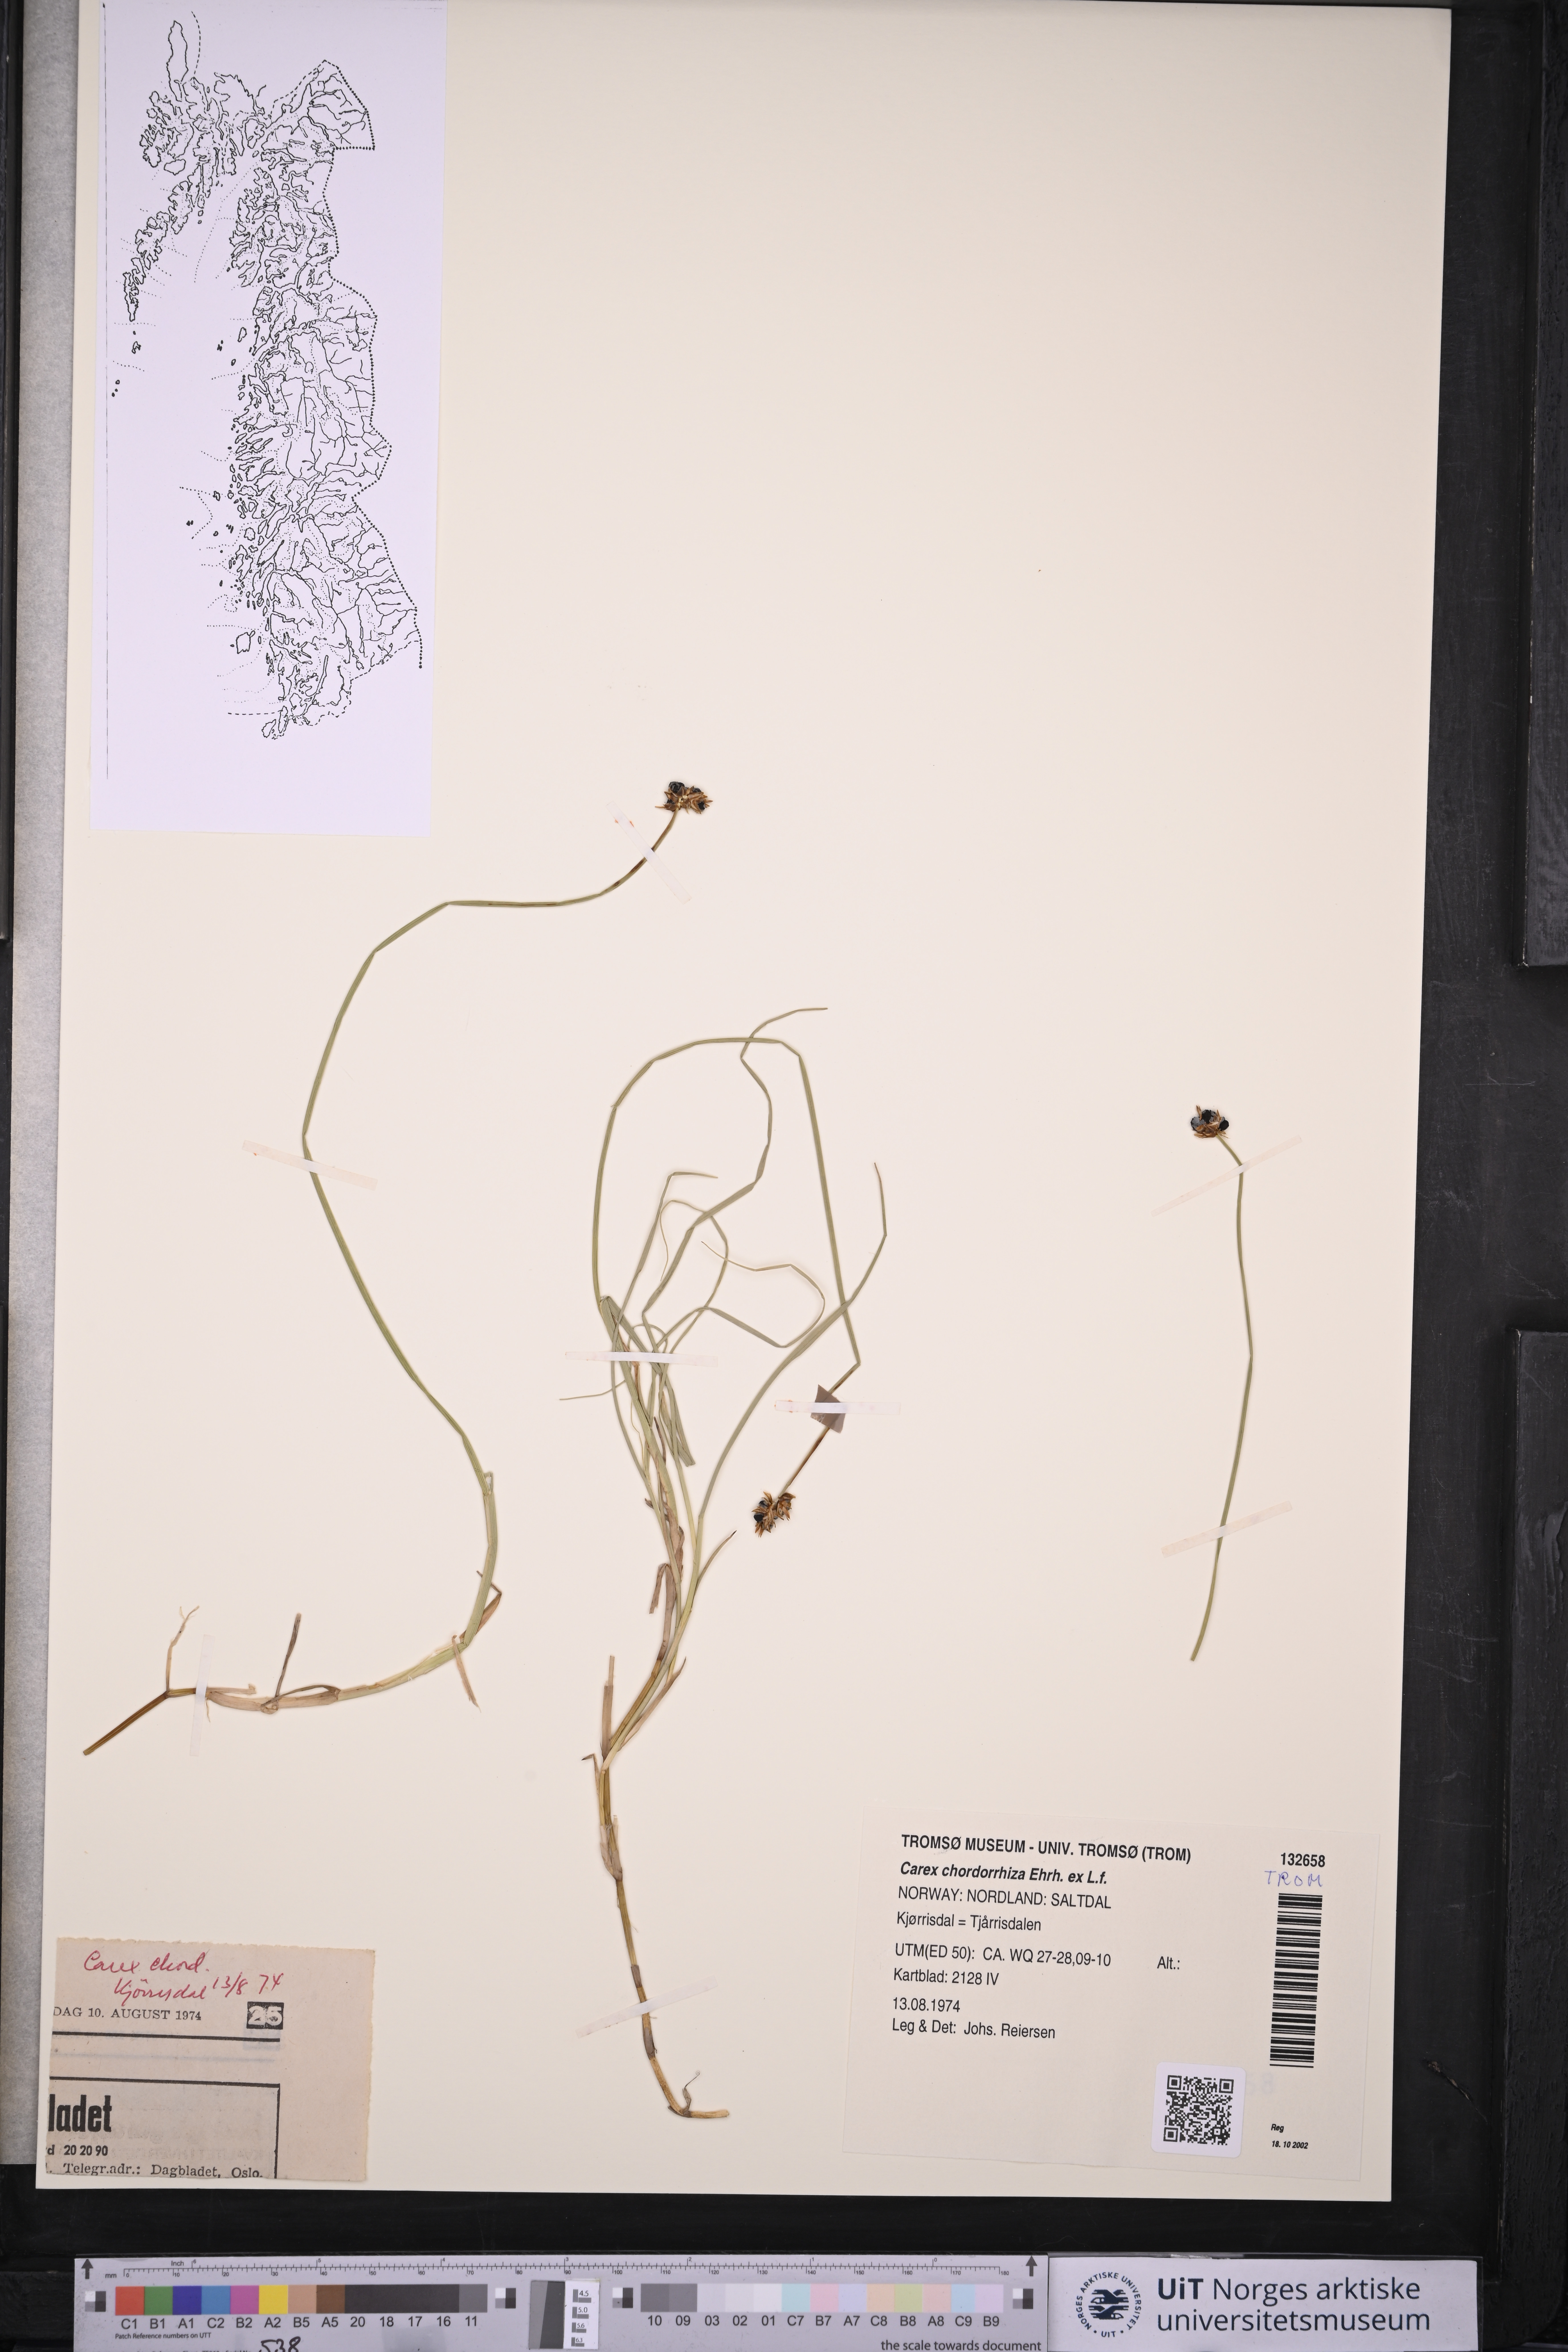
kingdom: Plantae
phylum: Tracheophyta
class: Liliopsida
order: Poales
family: Cyperaceae
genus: Carex
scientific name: Carex chordorrhiza
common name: String sedge
